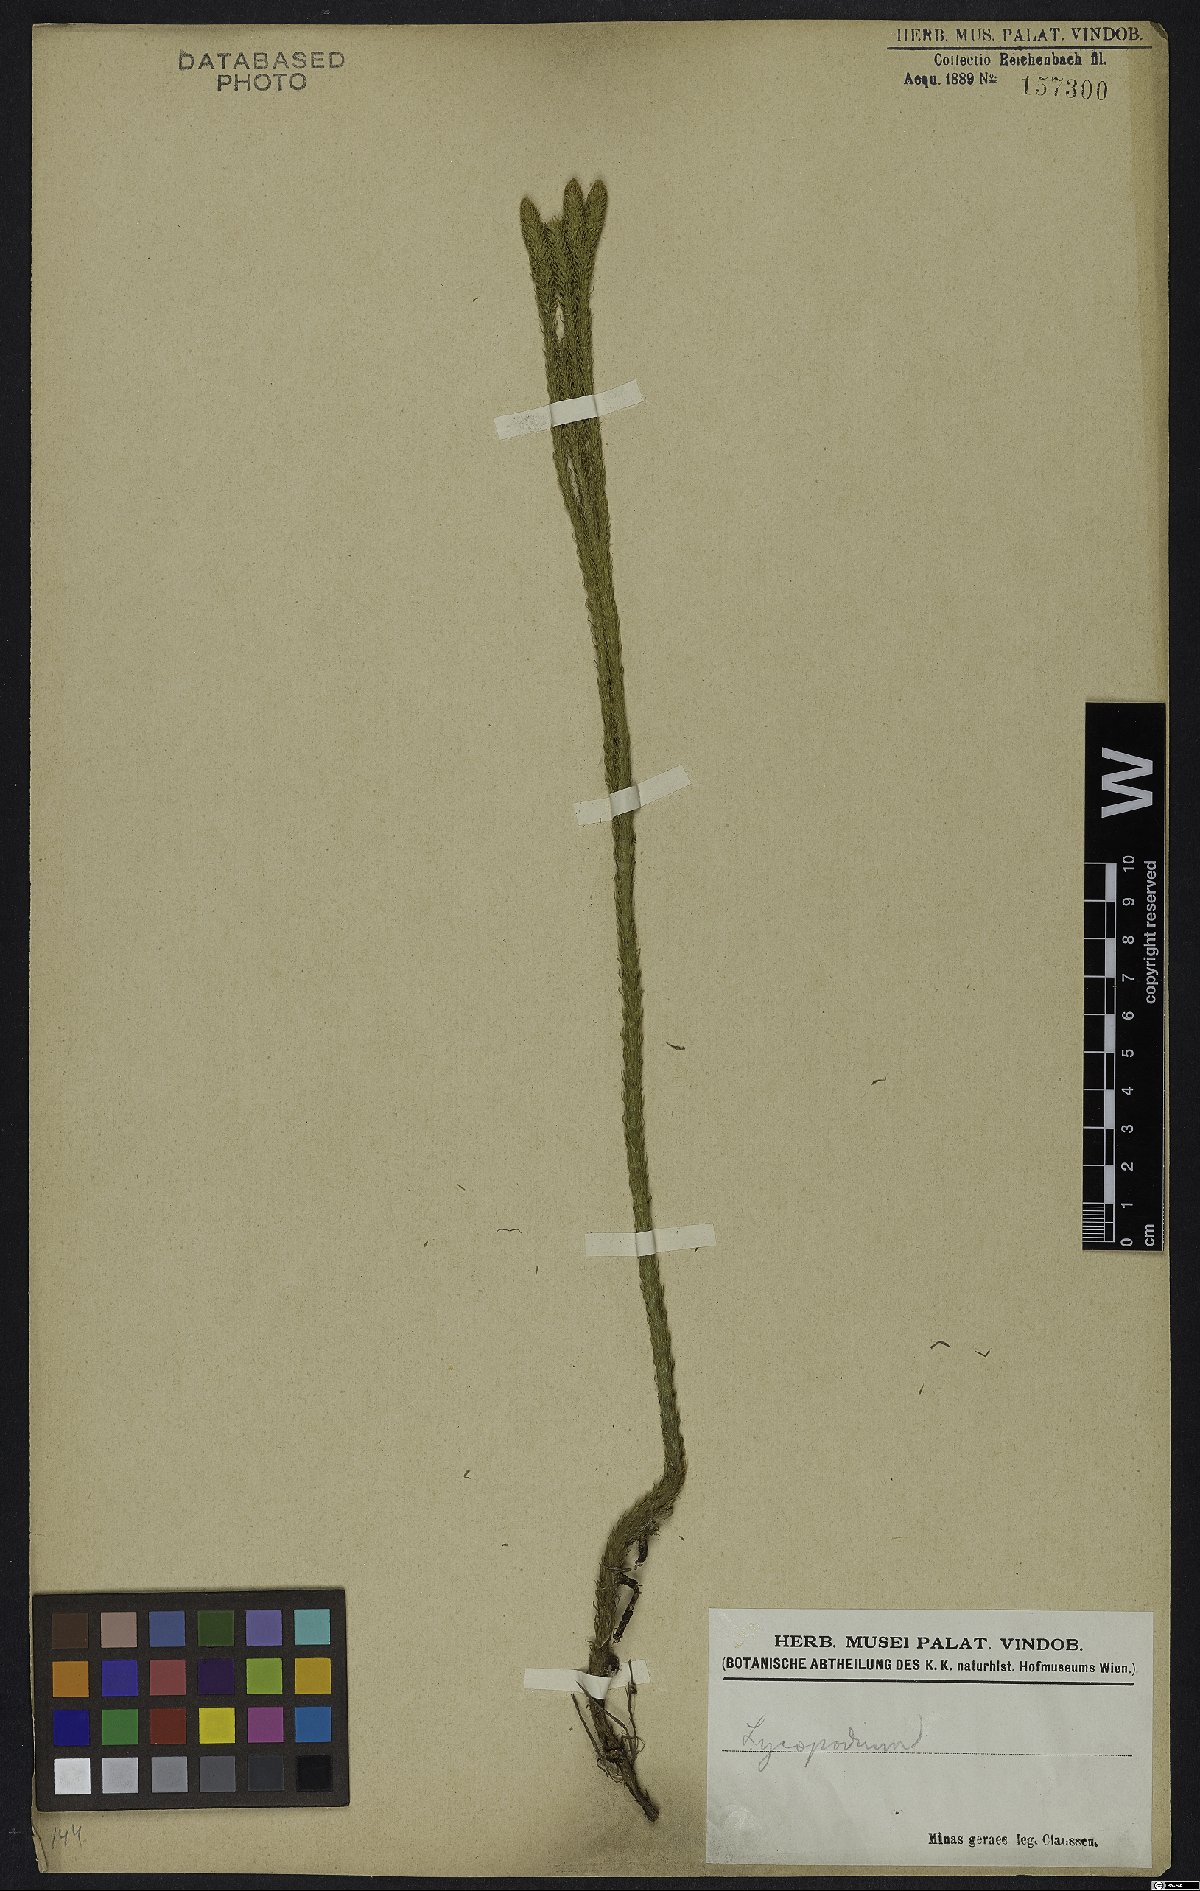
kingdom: Plantae
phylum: Tracheophyta
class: Lycopodiopsida
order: Lycopodiales
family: Lycopodiaceae
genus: Lycopodium
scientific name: Lycopodium
